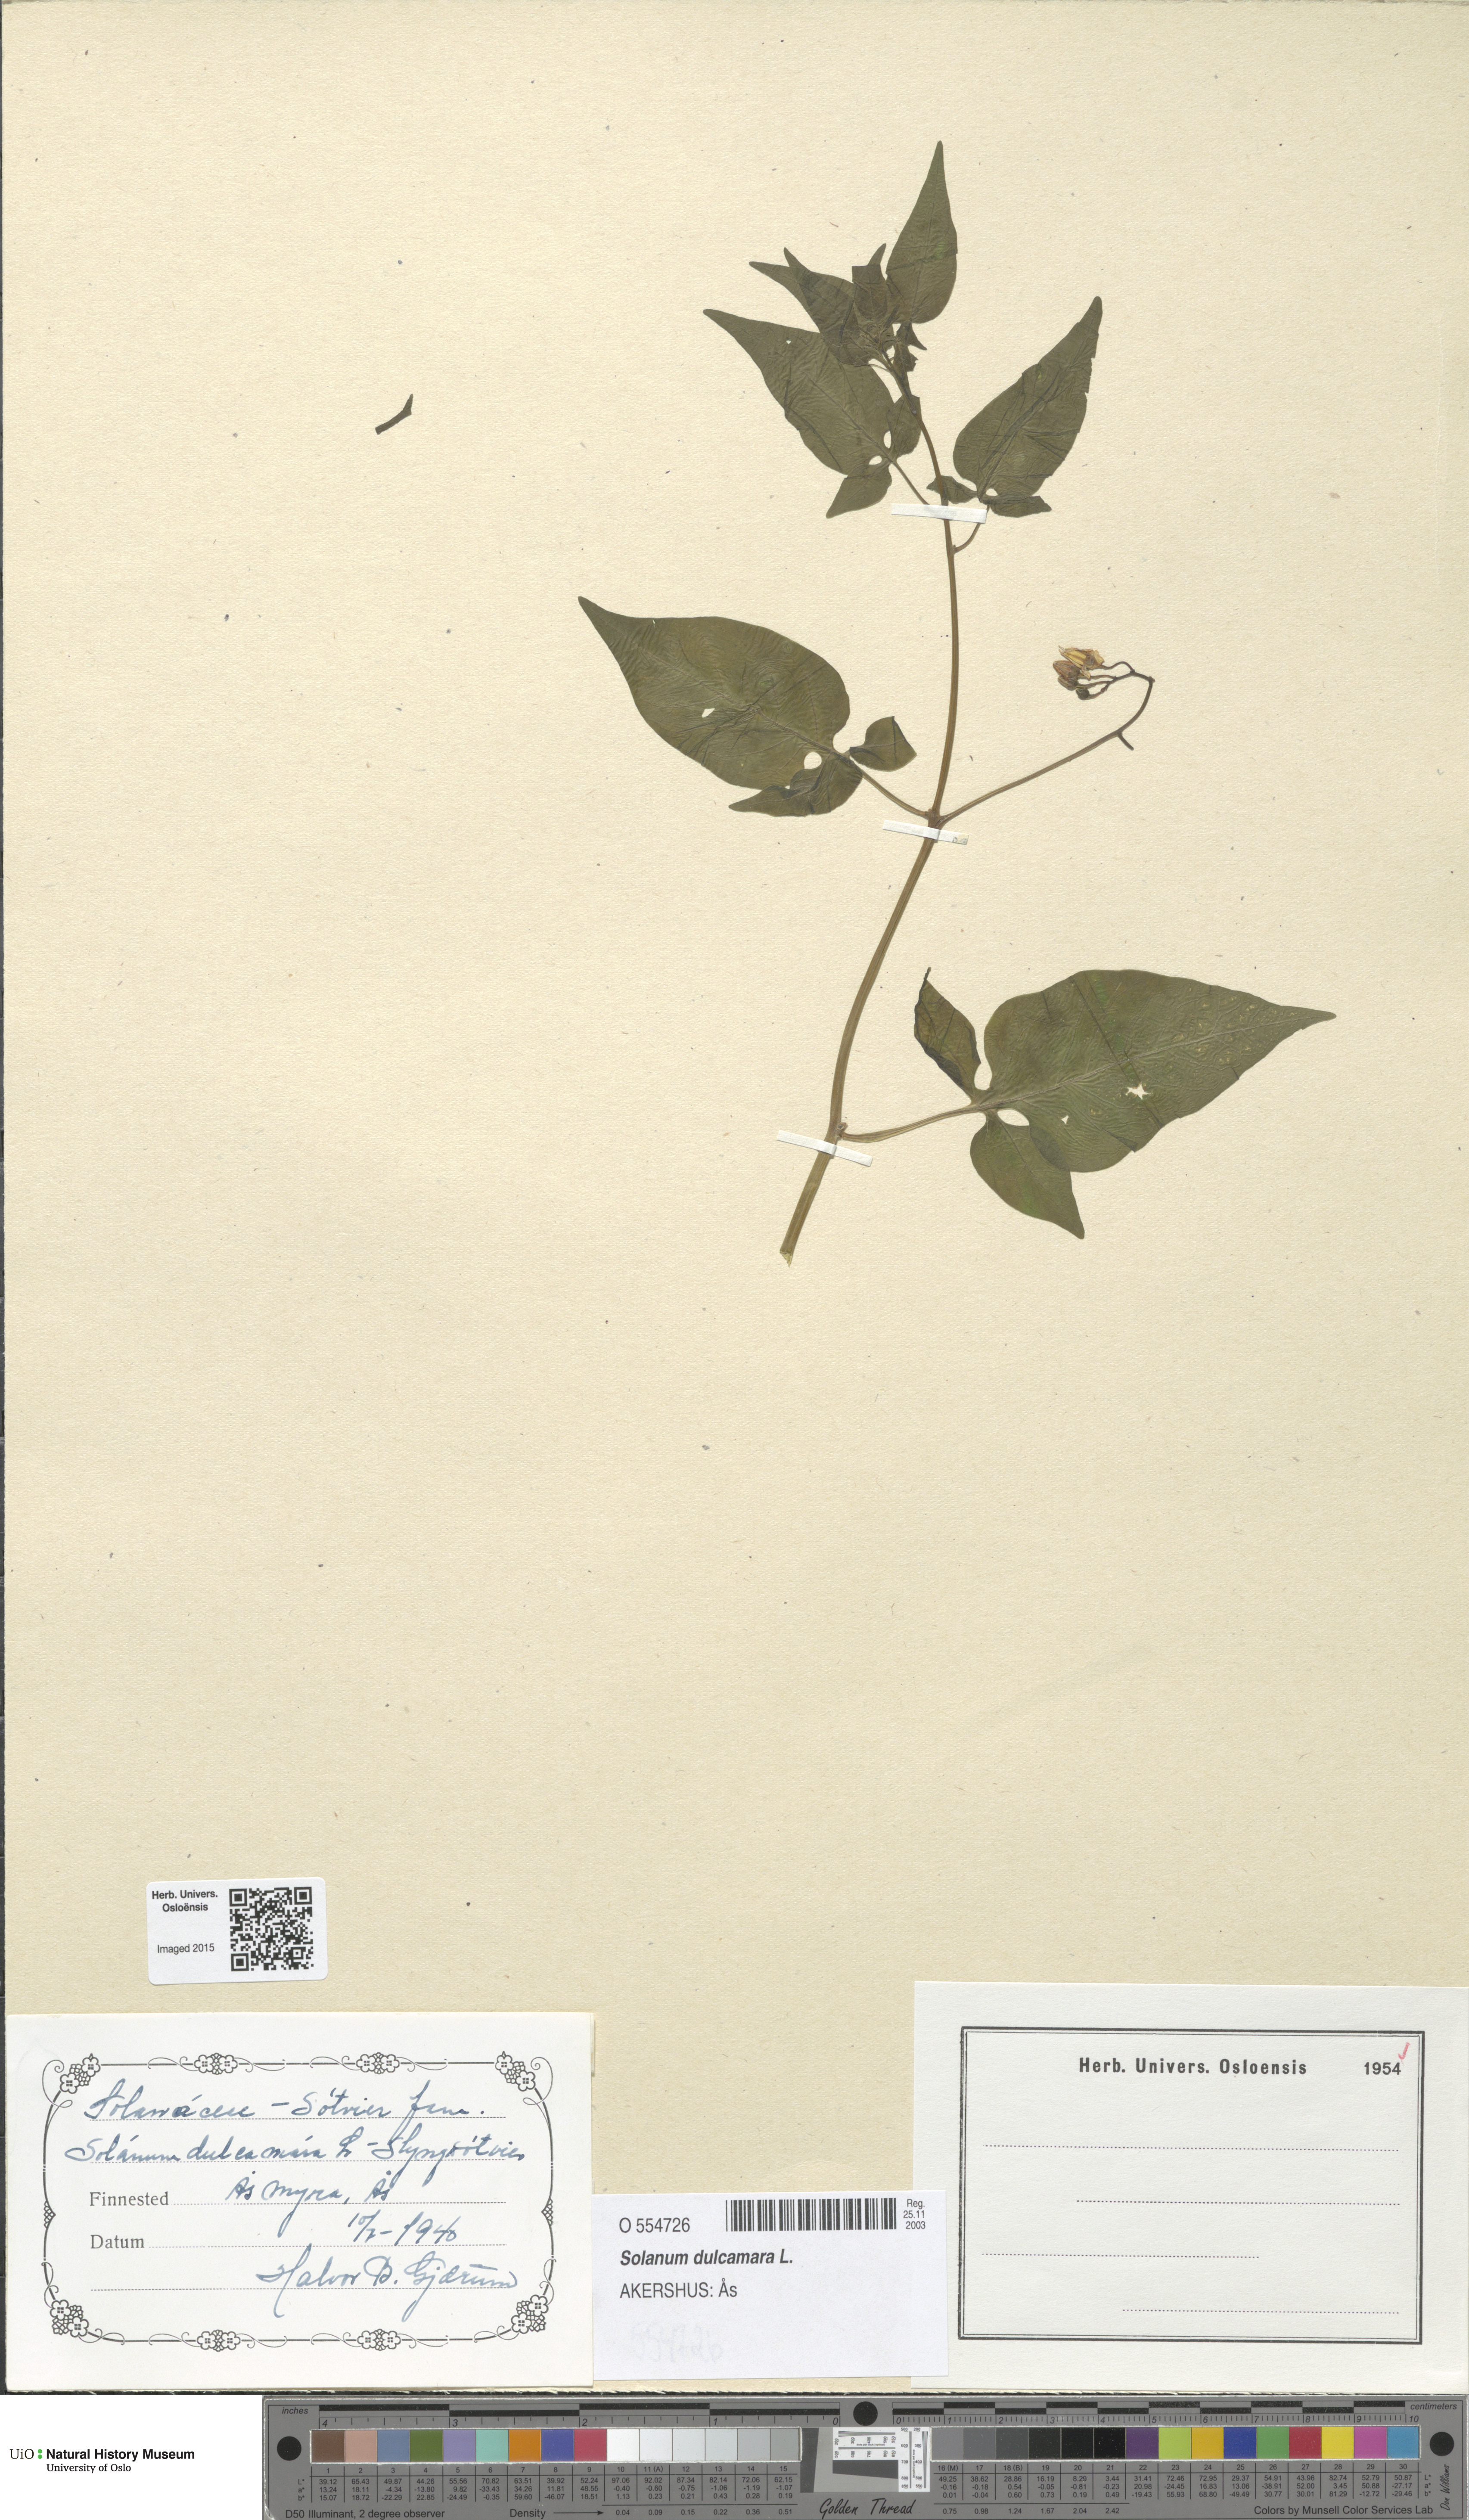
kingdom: Plantae
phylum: Tracheophyta
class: Magnoliopsida
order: Solanales
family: Solanaceae
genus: Solanum
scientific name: Solanum dulcamara
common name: Climbing nightshade
